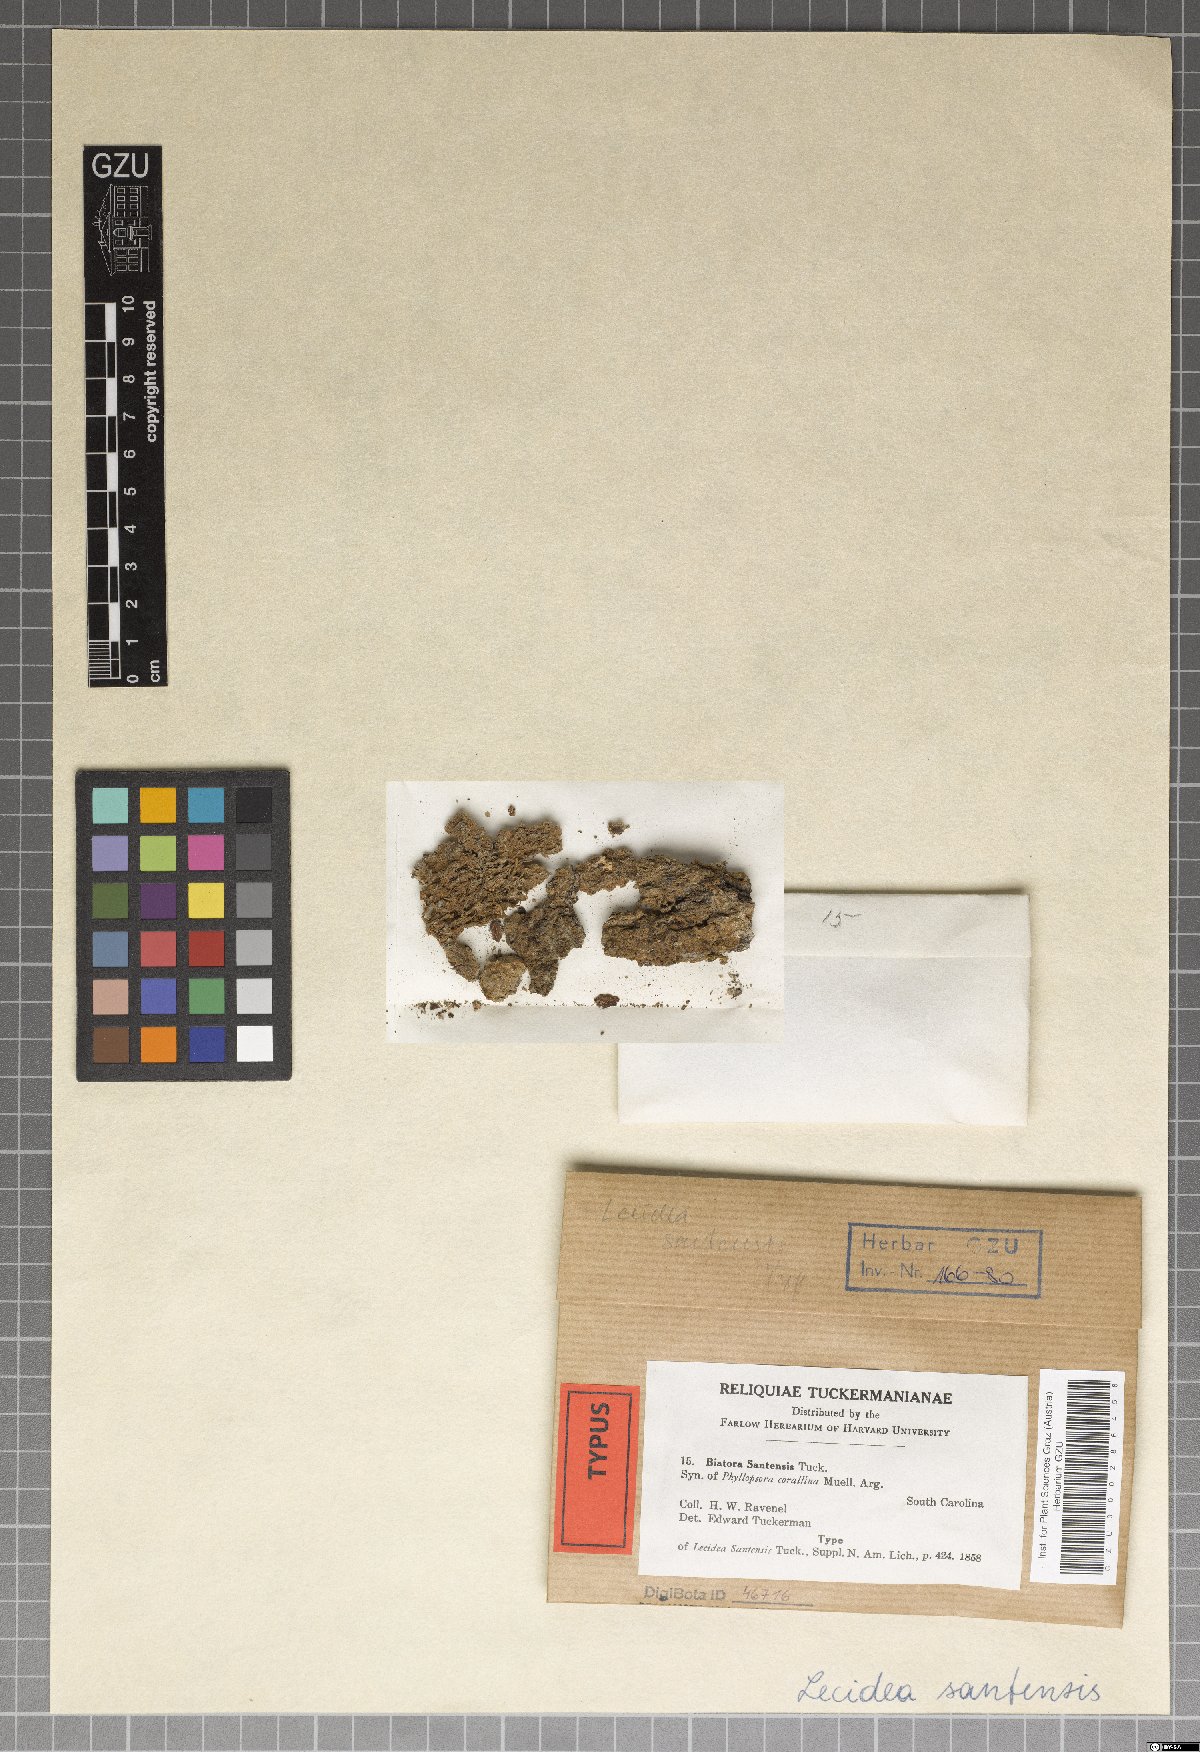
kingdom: Fungi
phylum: Ascomycota
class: Lecanoromycetes
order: Lecanorales
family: Ramalinaceae
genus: Phyllopsora
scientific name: Phyllopsora santensis
